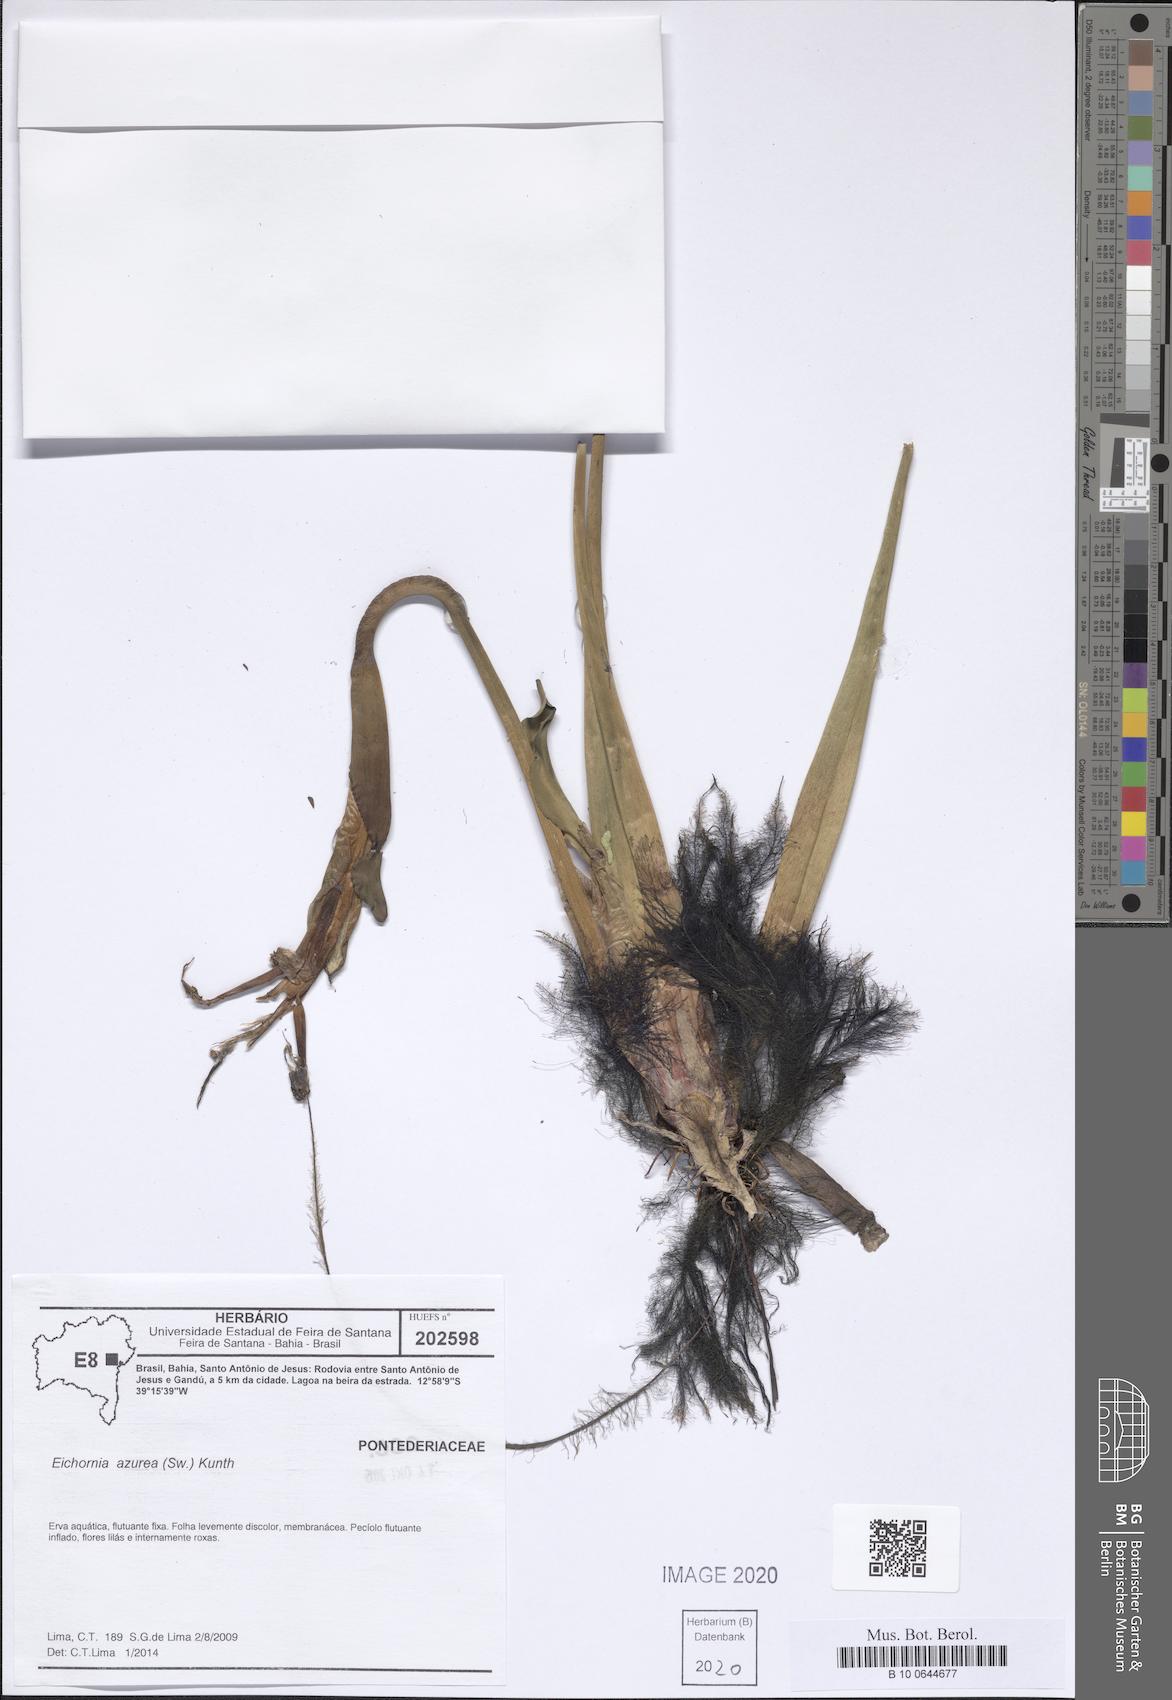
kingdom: Plantae
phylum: Tracheophyta
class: Liliopsida
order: Commelinales
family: Pontederiaceae
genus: Pontederia
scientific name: Pontederia azurea
